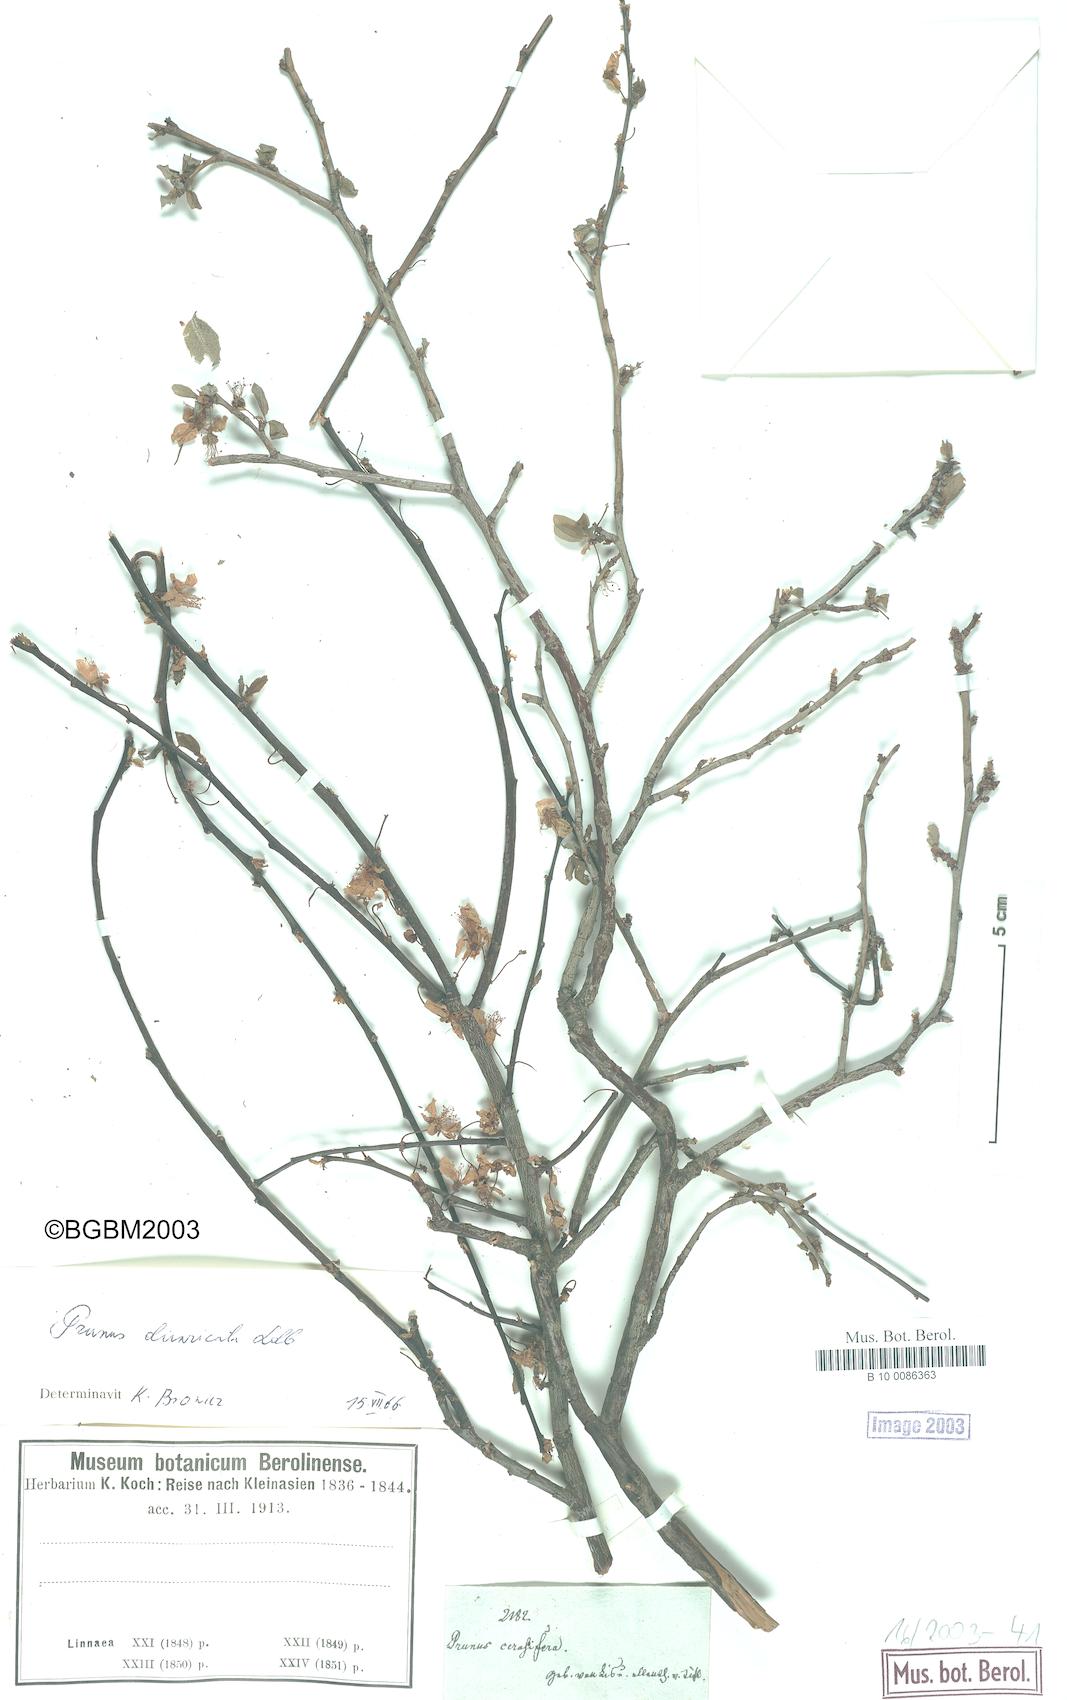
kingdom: Plantae
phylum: Tracheophyta
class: Magnoliopsida
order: Rosales
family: Rosaceae
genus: Prunus
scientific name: Prunus cerasifera
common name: Cherry plum
